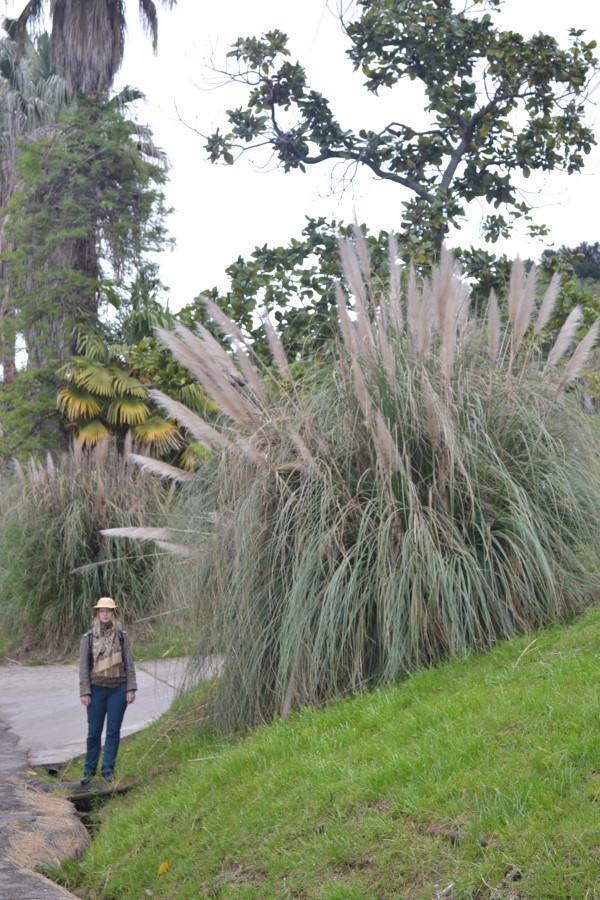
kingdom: Plantae
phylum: Tracheophyta
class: Liliopsida
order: Poales
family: Poaceae
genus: Cortaderia
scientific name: Cortaderia selloana
